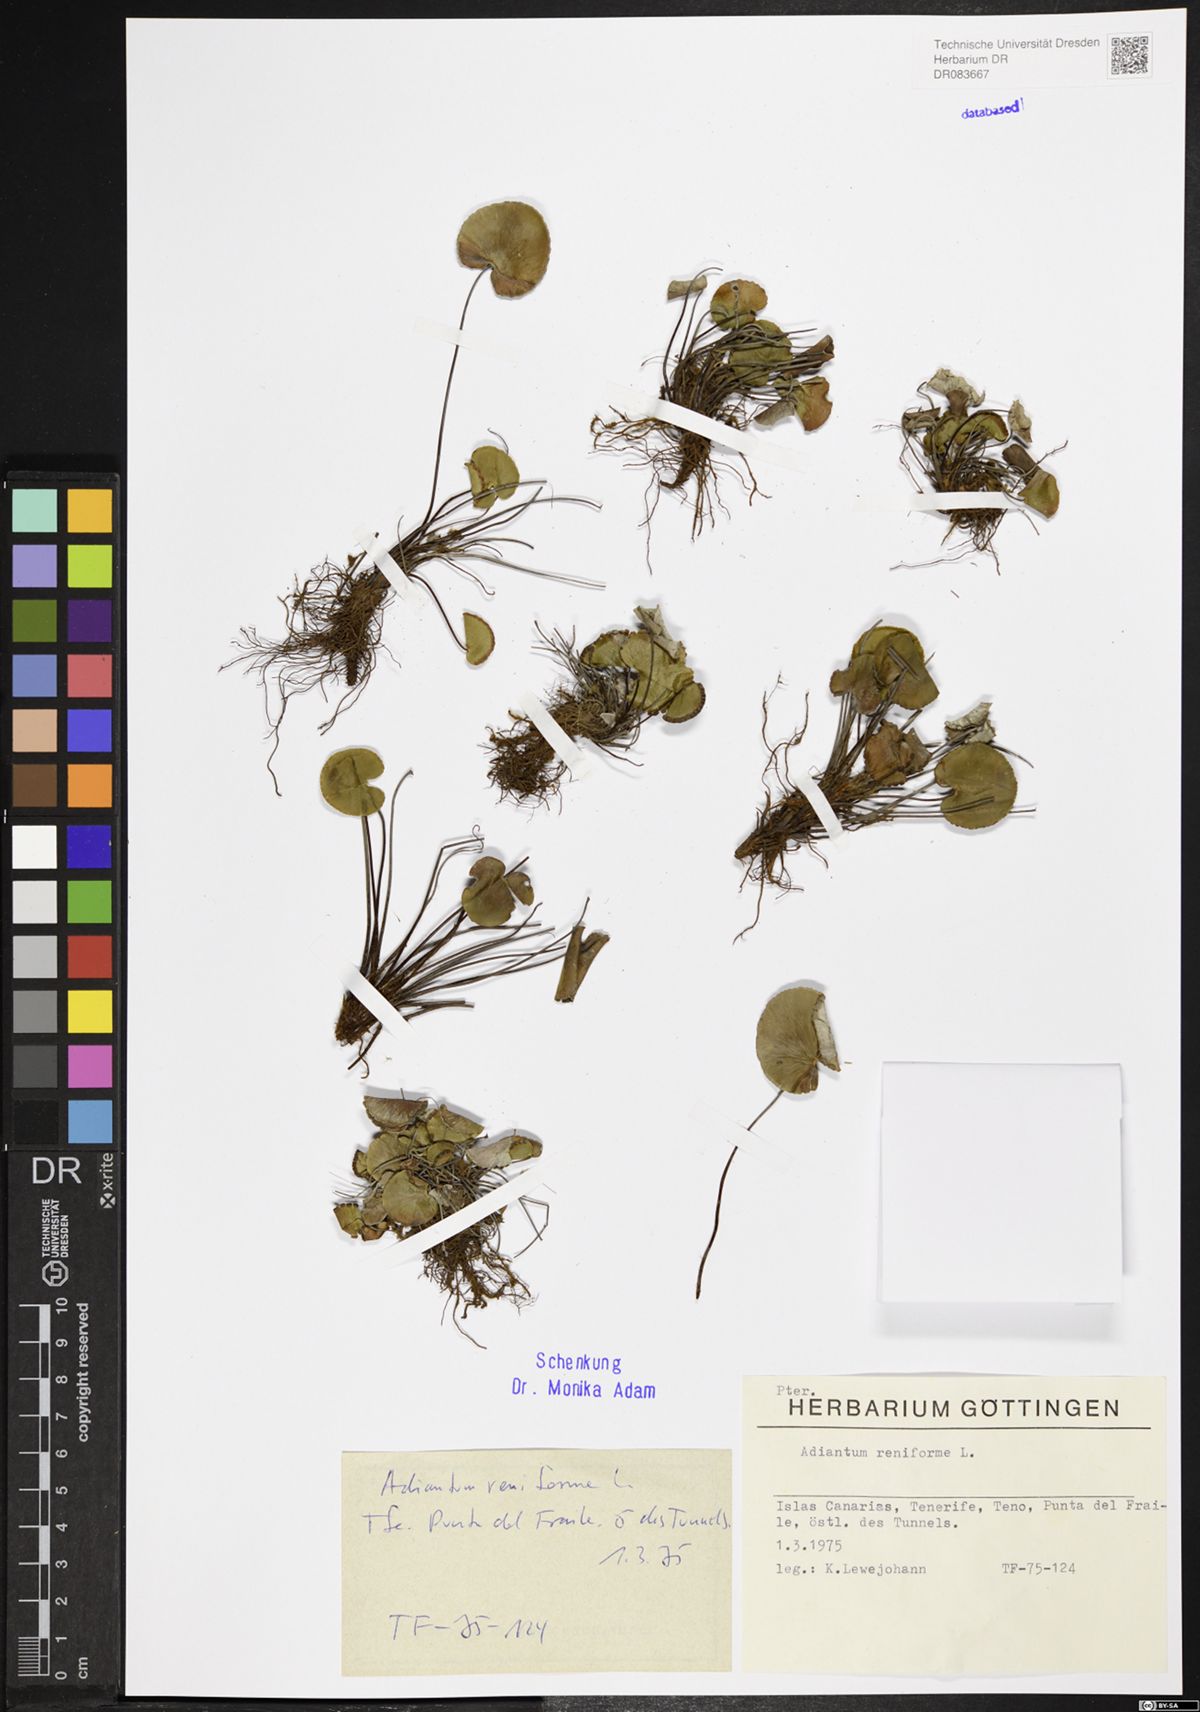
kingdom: Plantae
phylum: Tracheophyta
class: Polypodiopsida
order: Polypodiales
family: Pteridaceae
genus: Adiantum
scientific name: Adiantum reniforme
